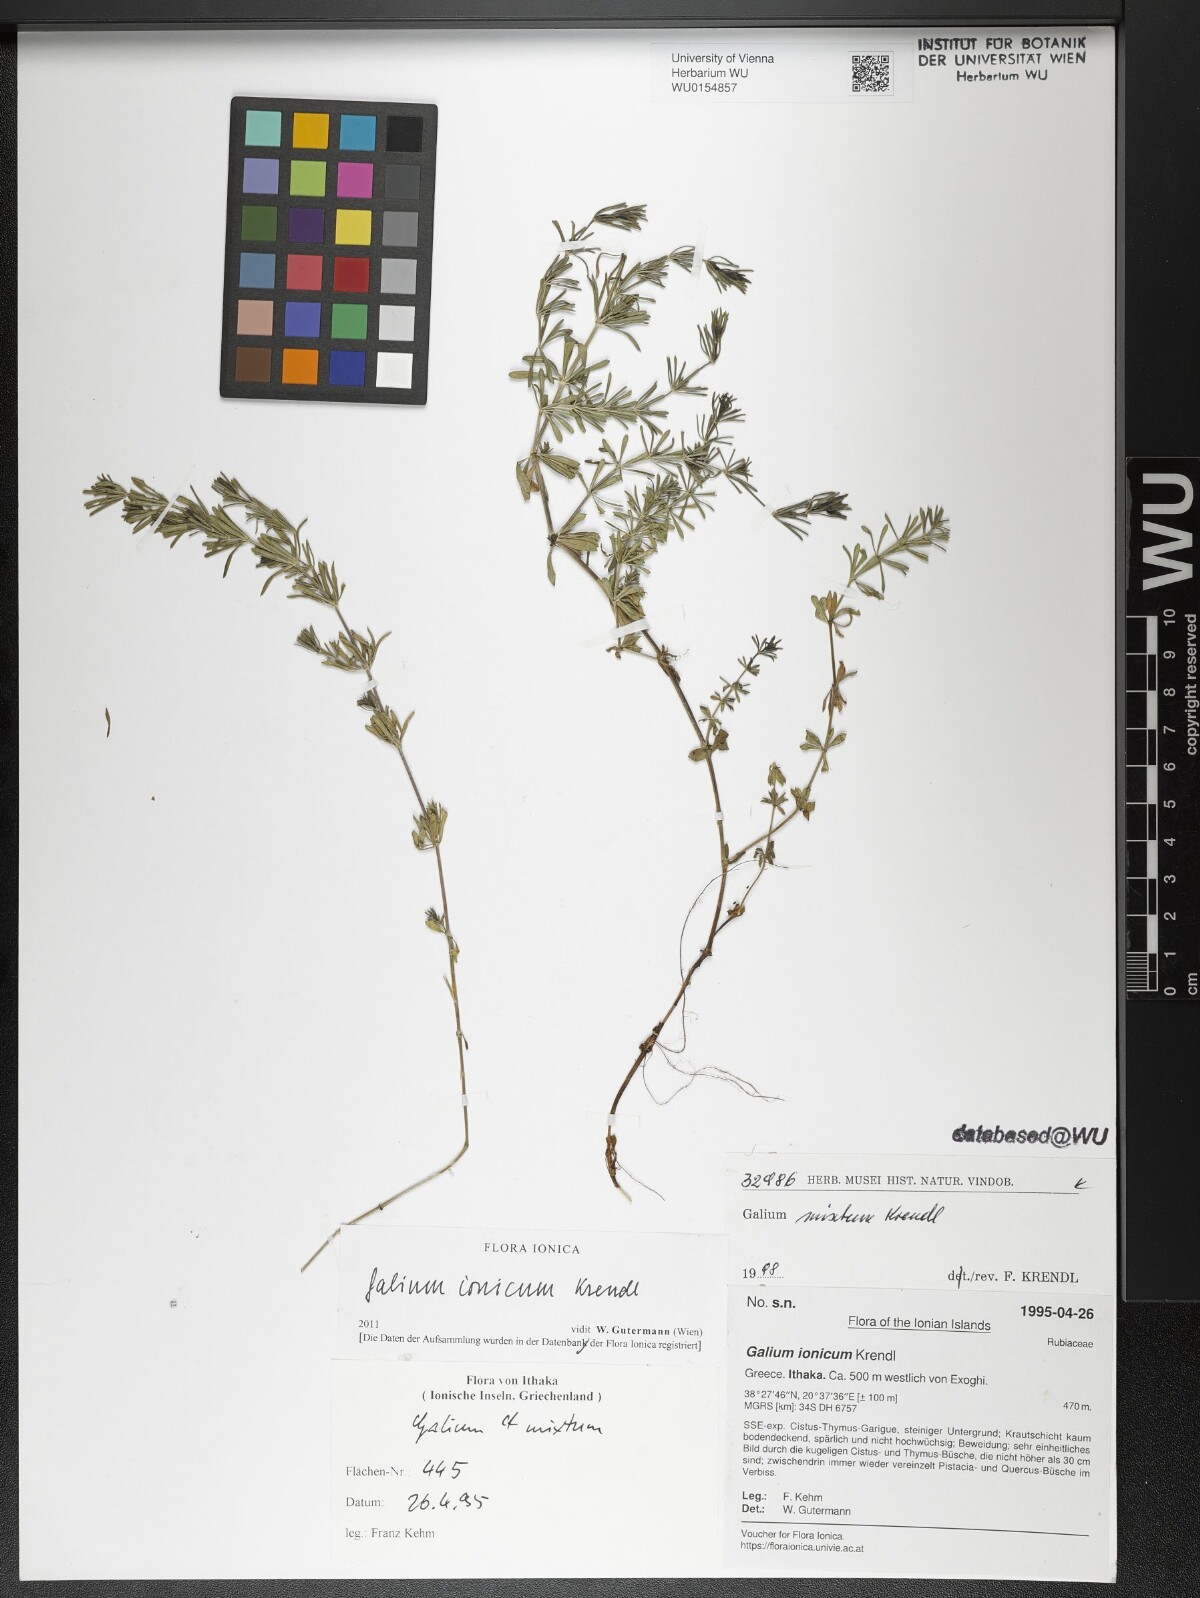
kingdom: Plantae
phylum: Tracheophyta
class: Magnoliopsida
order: Gentianales
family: Rubiaceae
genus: Galium
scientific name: Galium ionicum
